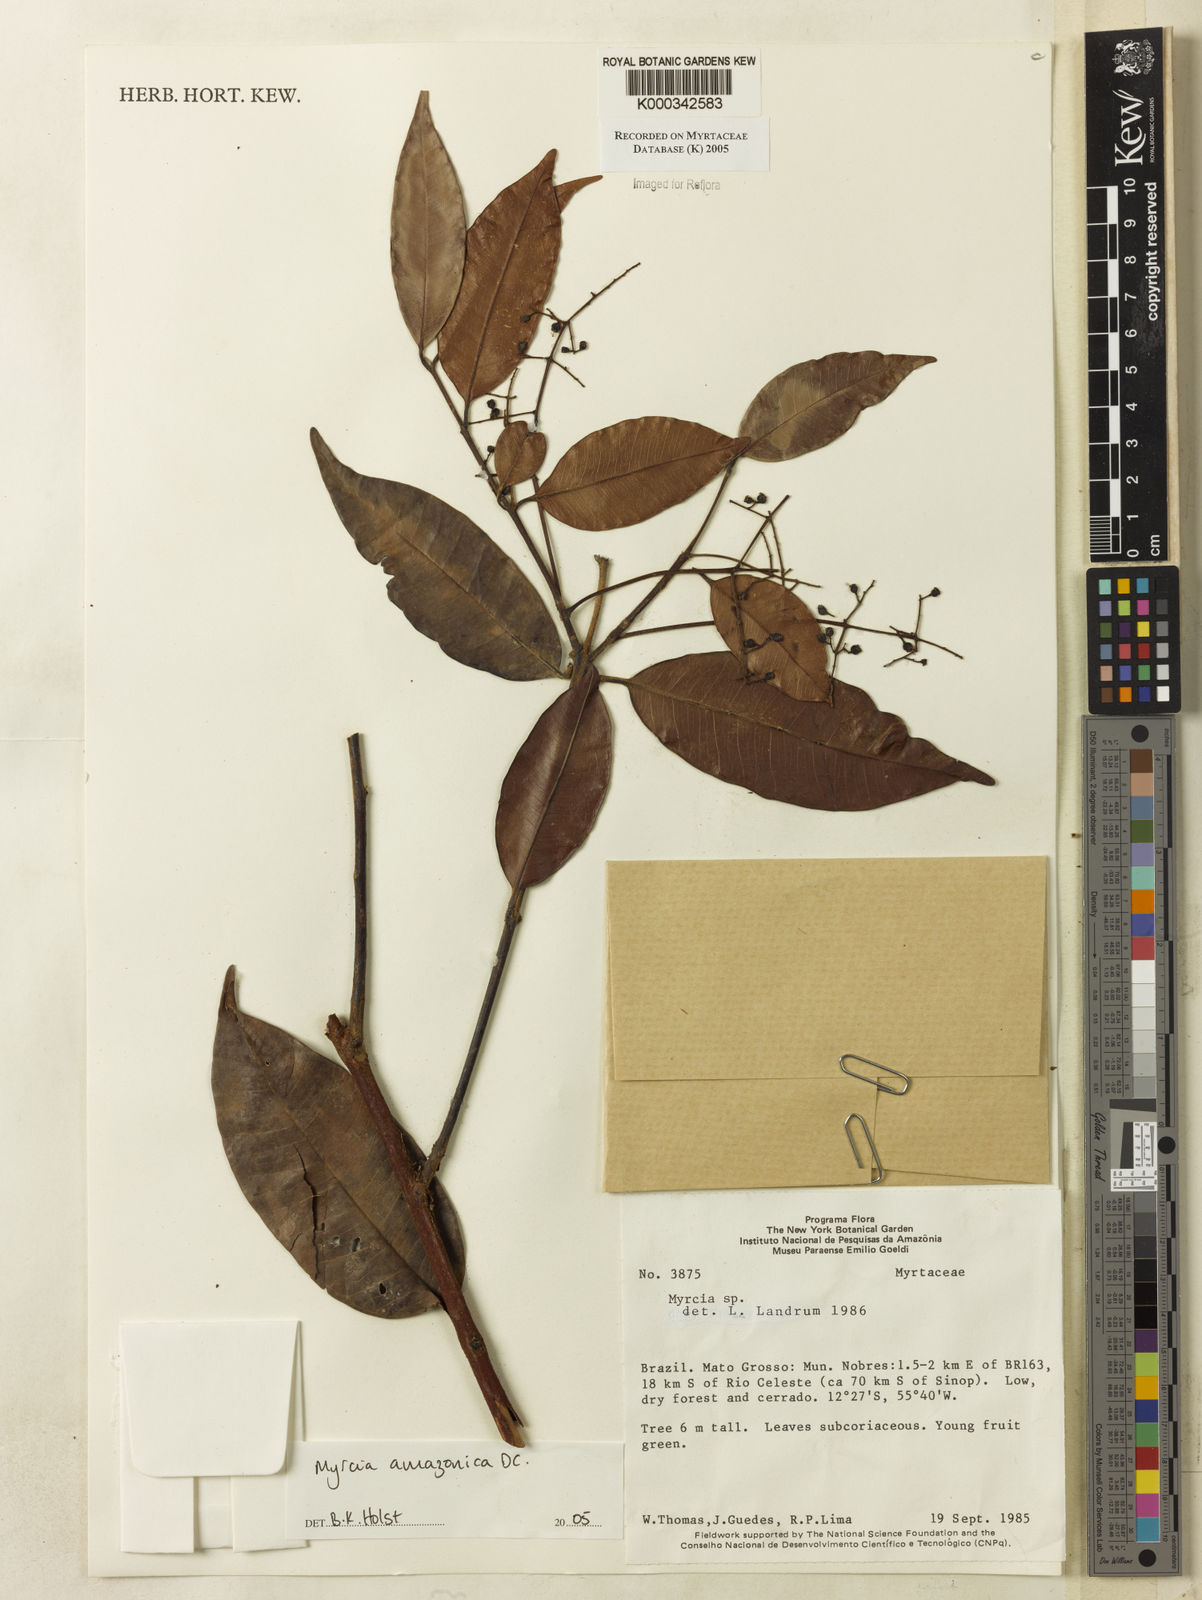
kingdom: Plantae
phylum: Tracheophyta
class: Magnoliopsida
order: Myrtales
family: Myrtaceae
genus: Myrcia
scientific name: Myrcia amazonica
